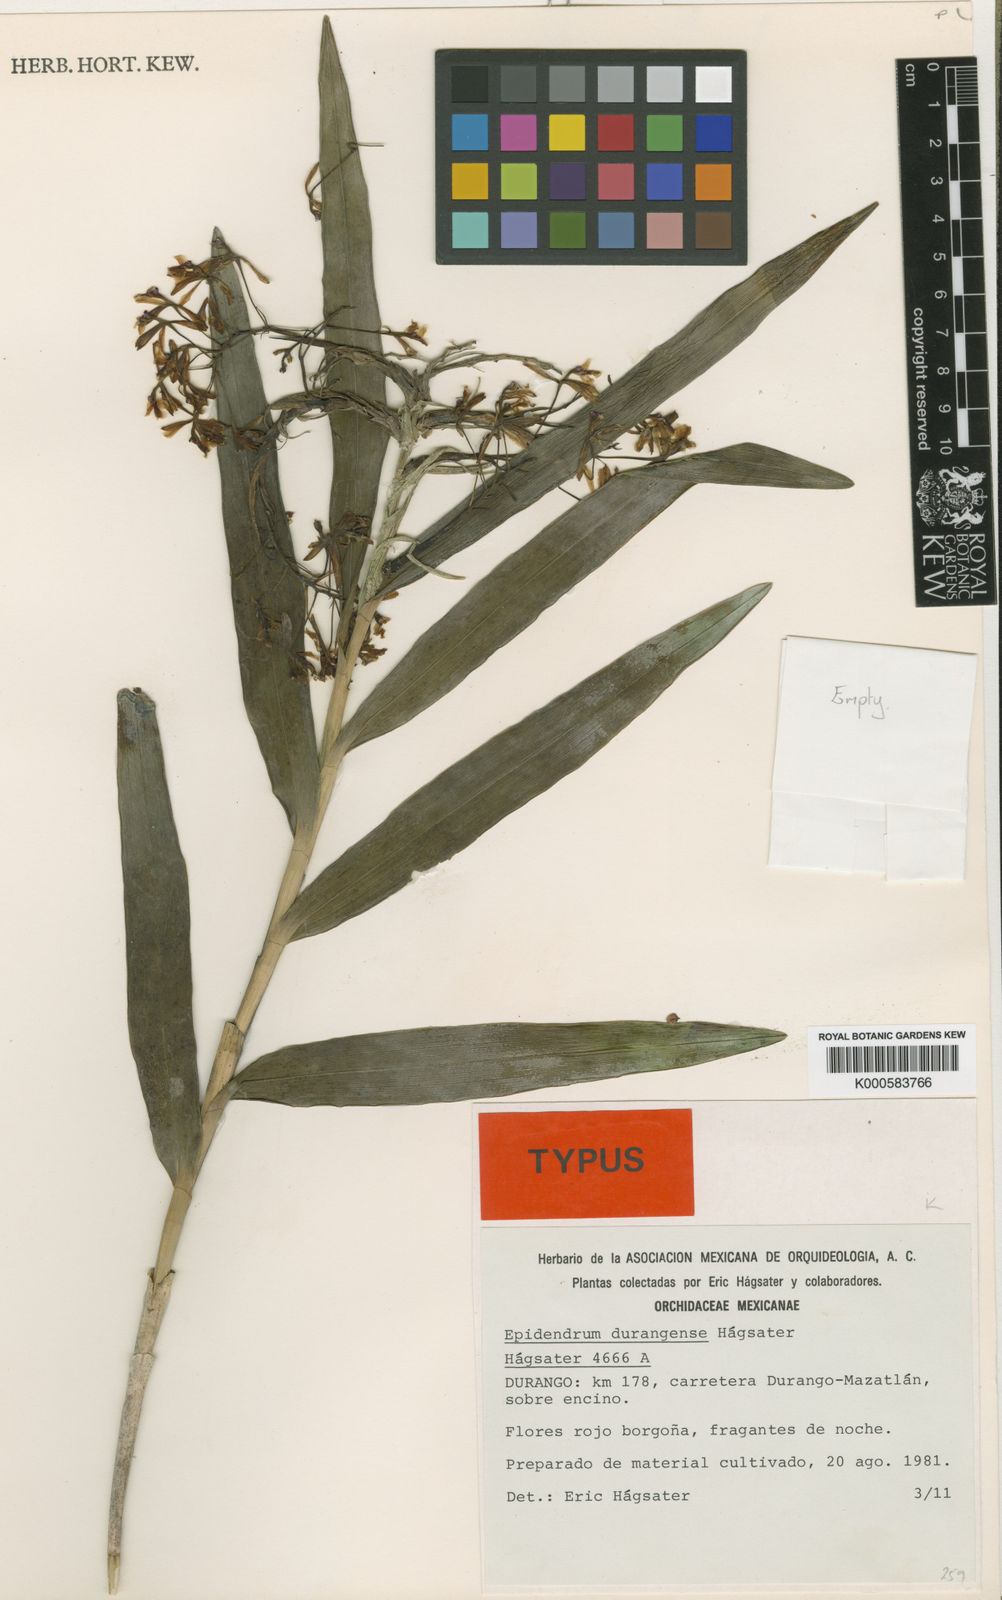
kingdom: Plantae
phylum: Tracheophyta
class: Liliopsida
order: Asparagales
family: Orchidaceae
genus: Epidendrum
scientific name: Epidendrum
